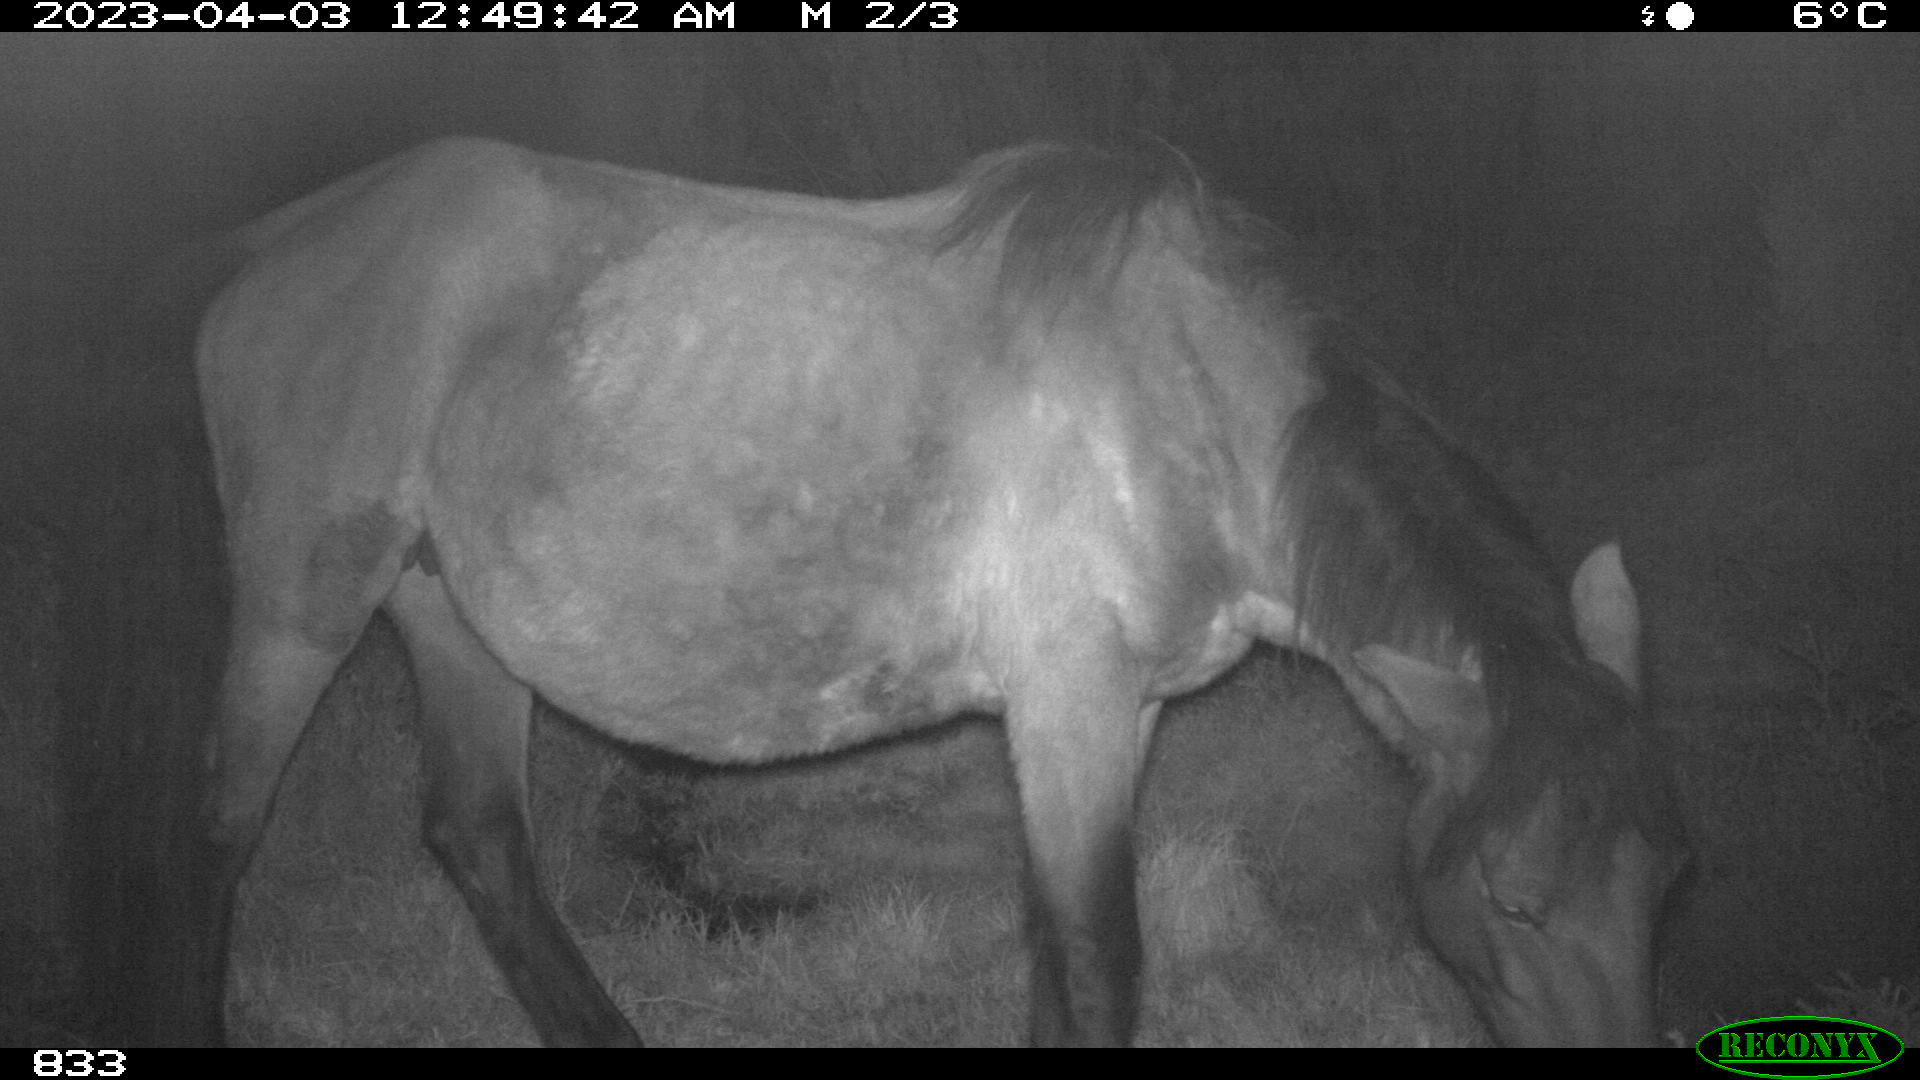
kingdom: Animalia
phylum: Chordata
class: Mammalia
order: Perissodactyla
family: Equidae
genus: Equus
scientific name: Equus caballus
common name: Horse
